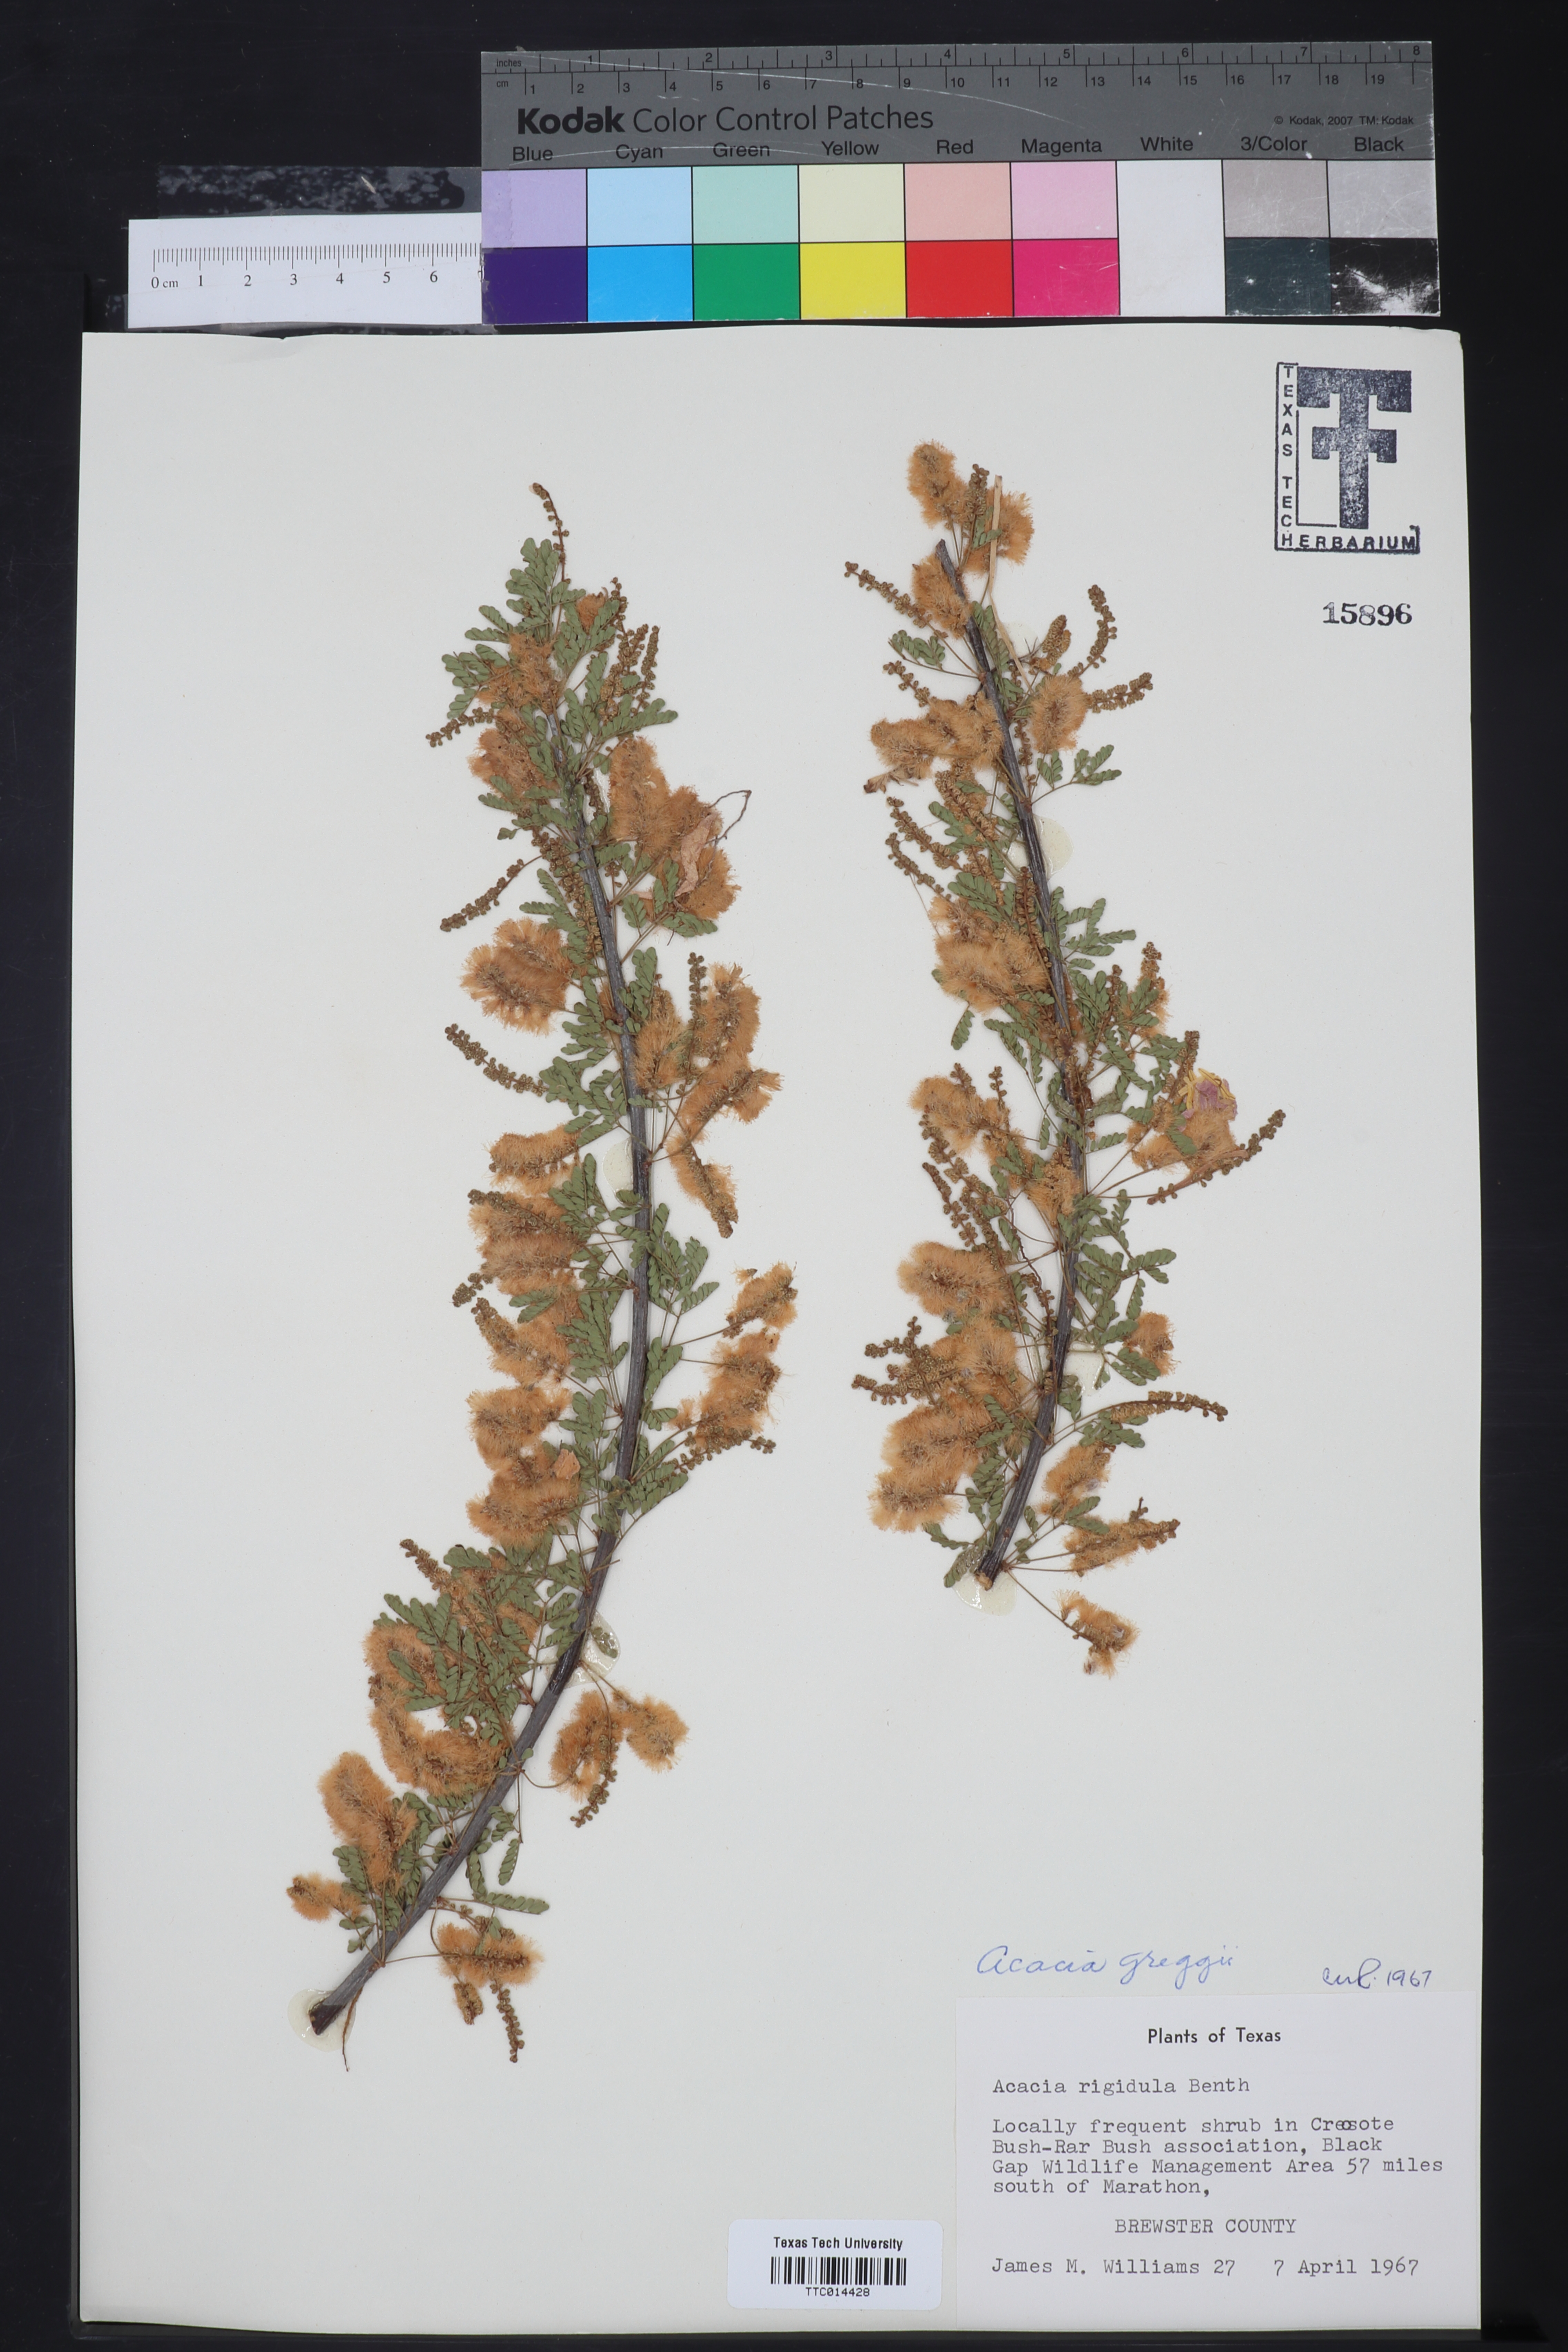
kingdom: Plantae
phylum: Tracheophyta
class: Magnoliopsida
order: Fabales
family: Fabaceae
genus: Senegalia
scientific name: Senegalia greggii
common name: Texas-mimosa
